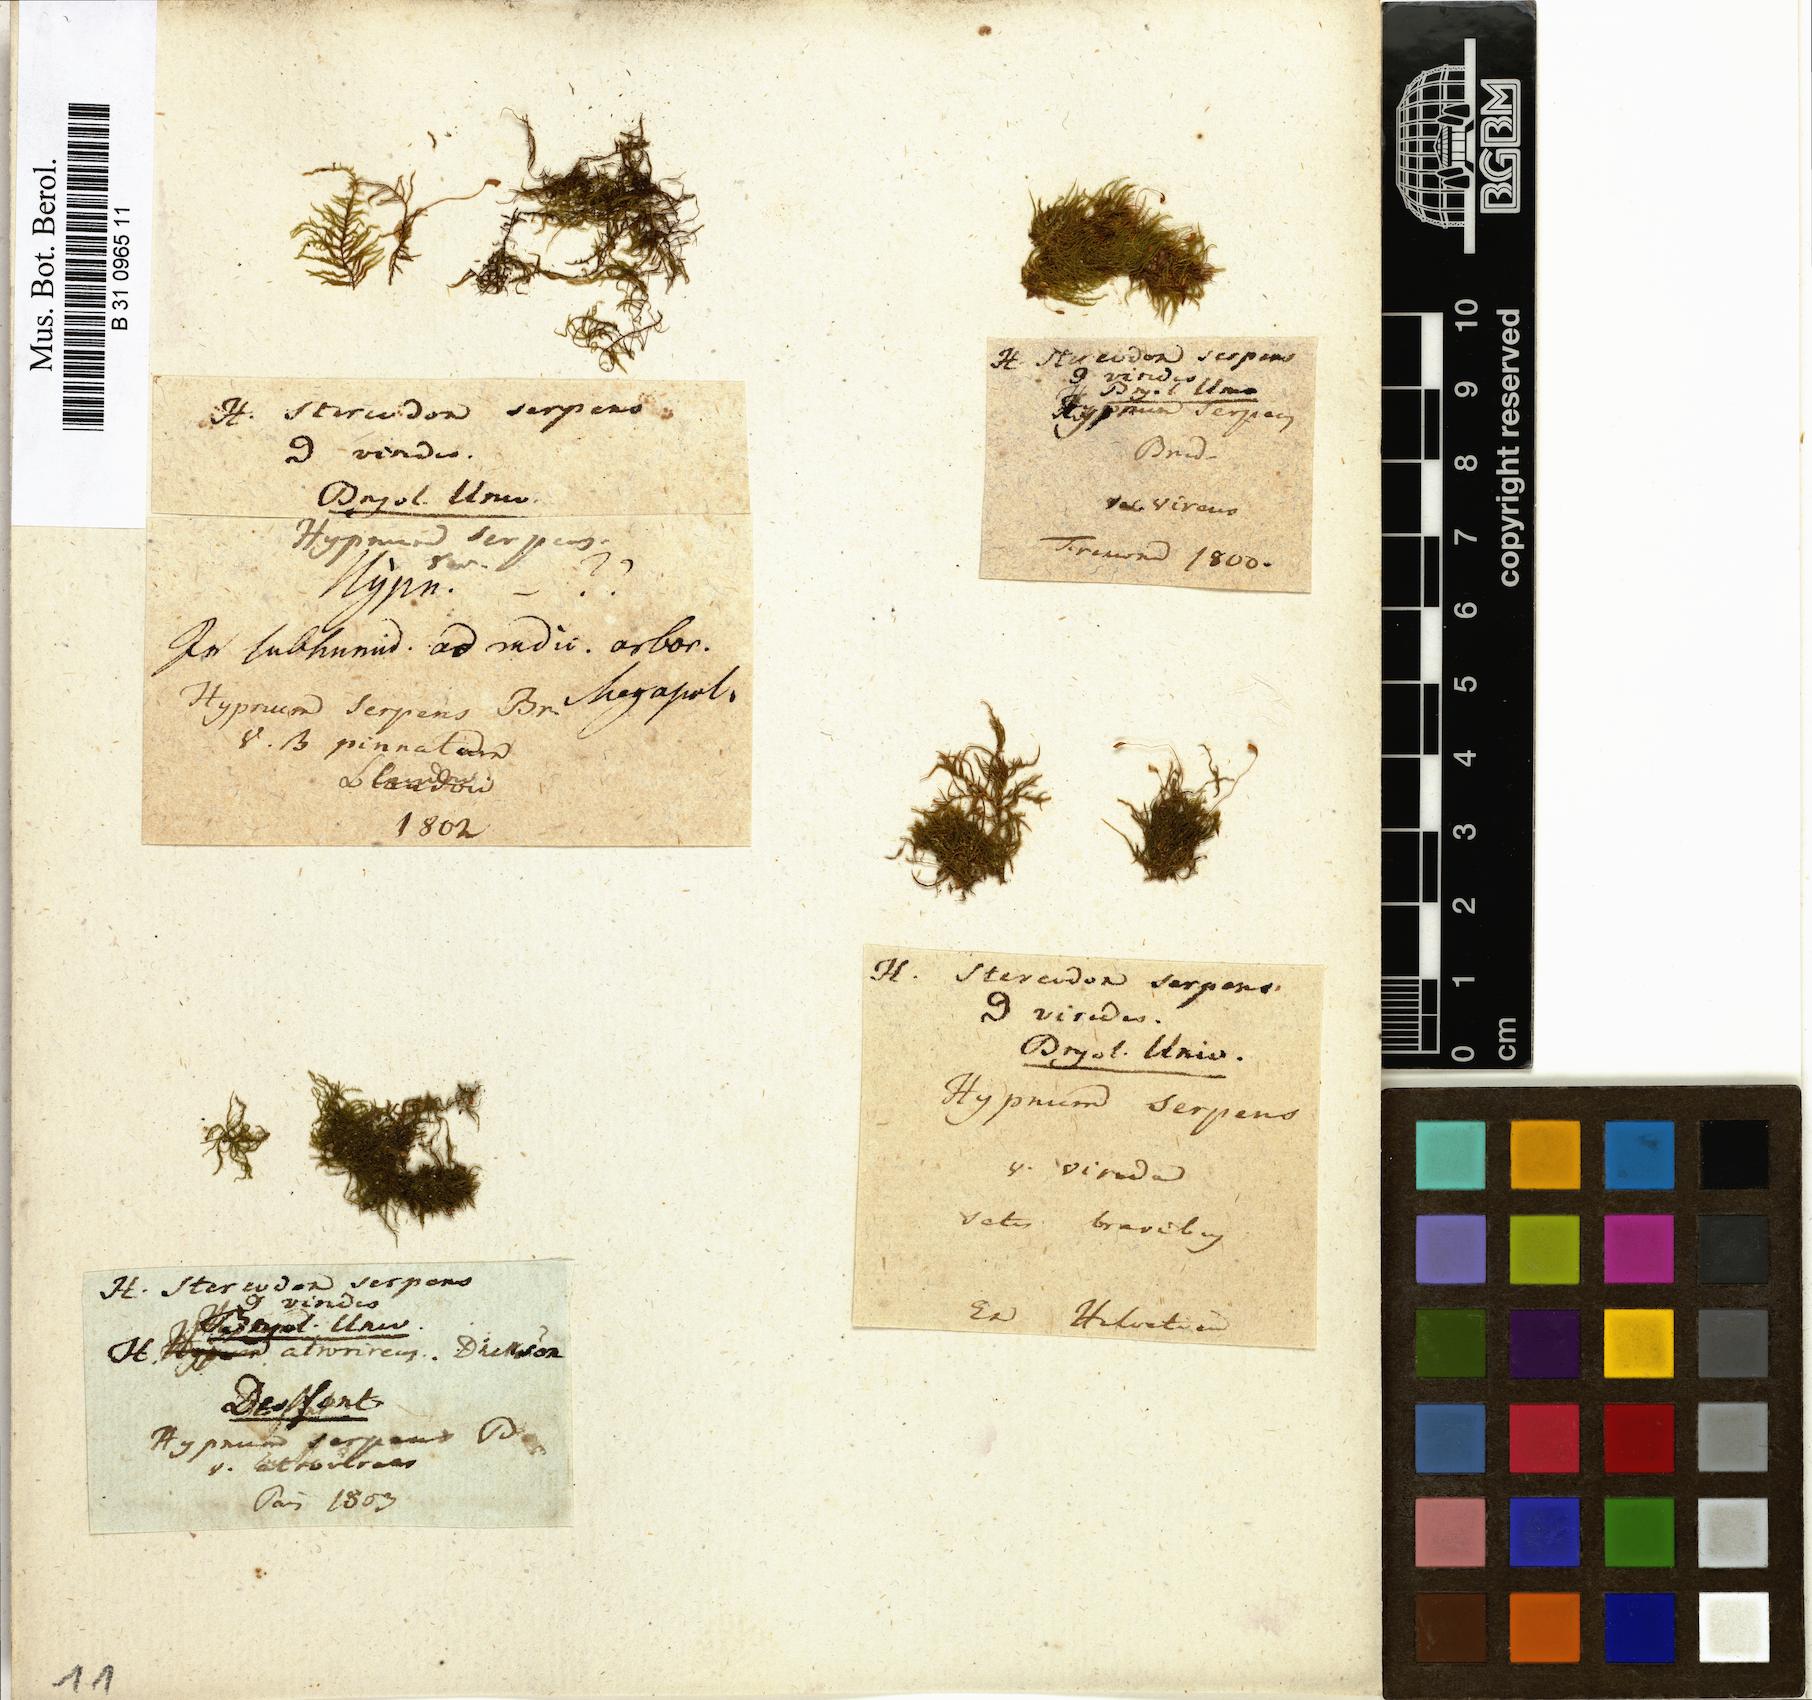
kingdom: Plantae
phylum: Bryophyta
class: Bryopsida
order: Hypnales
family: Amblystegiaceae
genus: Amblystegium
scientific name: Amblystegium serpens
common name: Jurkatzka's feather moss
